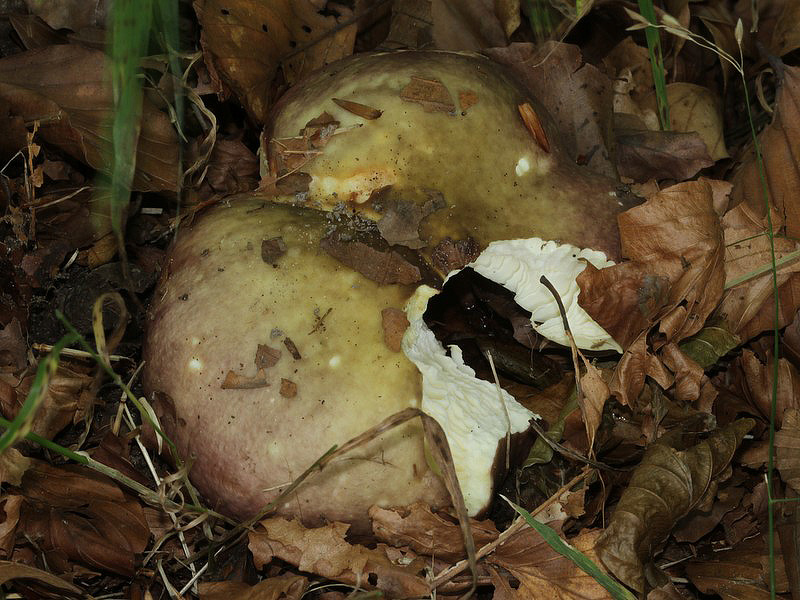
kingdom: Fungi
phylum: Basidiomycota
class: Agaricomycetes
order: Russulales
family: Russulaceae
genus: Russula
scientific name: Russula cyanoxantha
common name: broget skørhat
